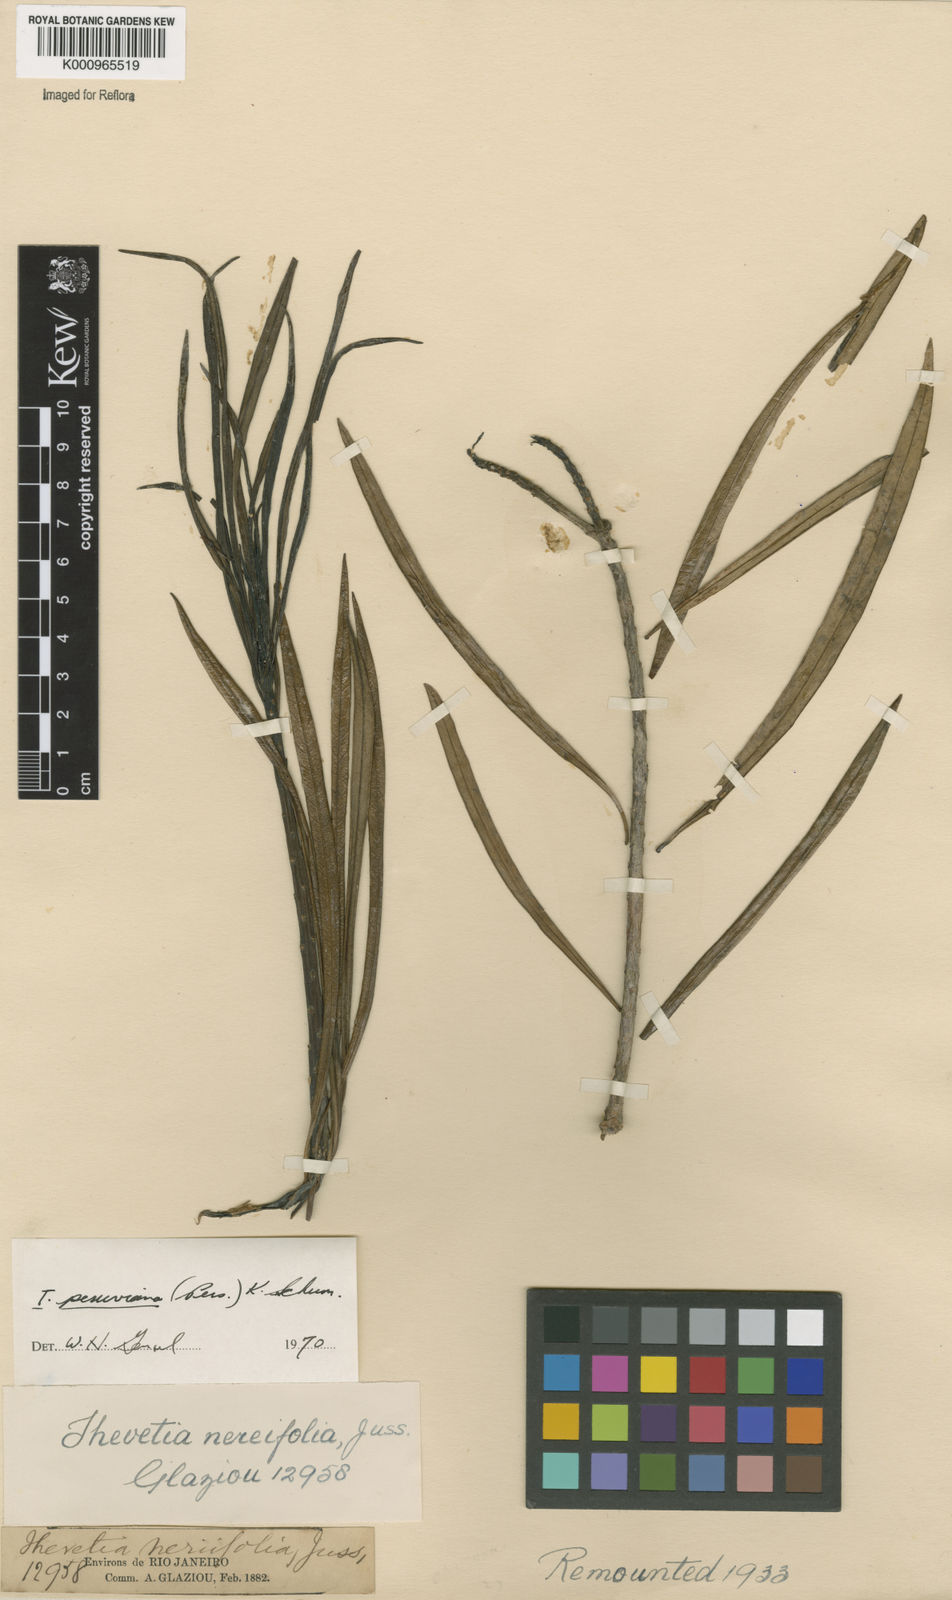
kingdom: Plantae
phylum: Tracheophyta
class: Magnoliopsida
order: Gentianales
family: Apocynaceae
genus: Cascabela
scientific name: Cascabela thevetia
